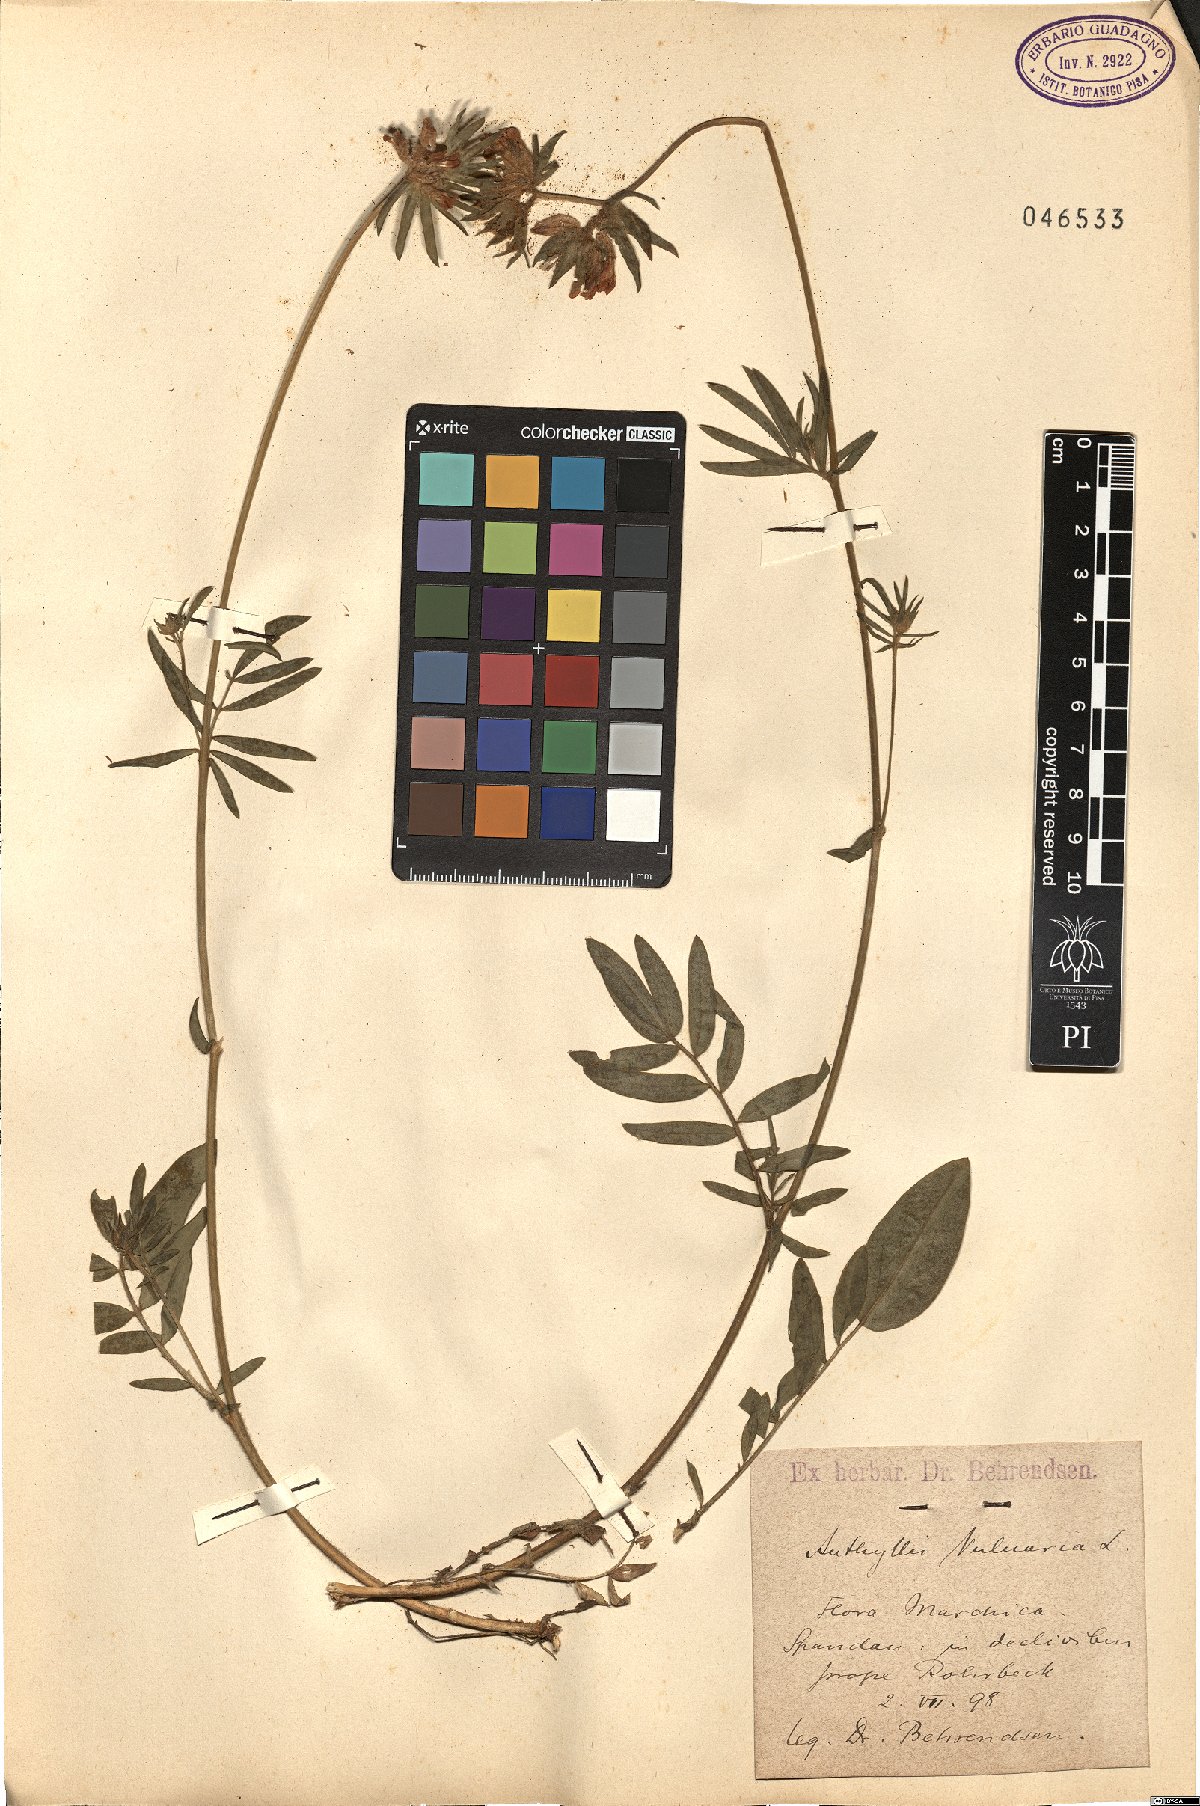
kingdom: Plantae
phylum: Tracheophyta
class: Magnoliopsida
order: Fabales
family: Fabaceae
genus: Anthyllis
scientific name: Anthyllis vulneraria
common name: Kidney vetch
